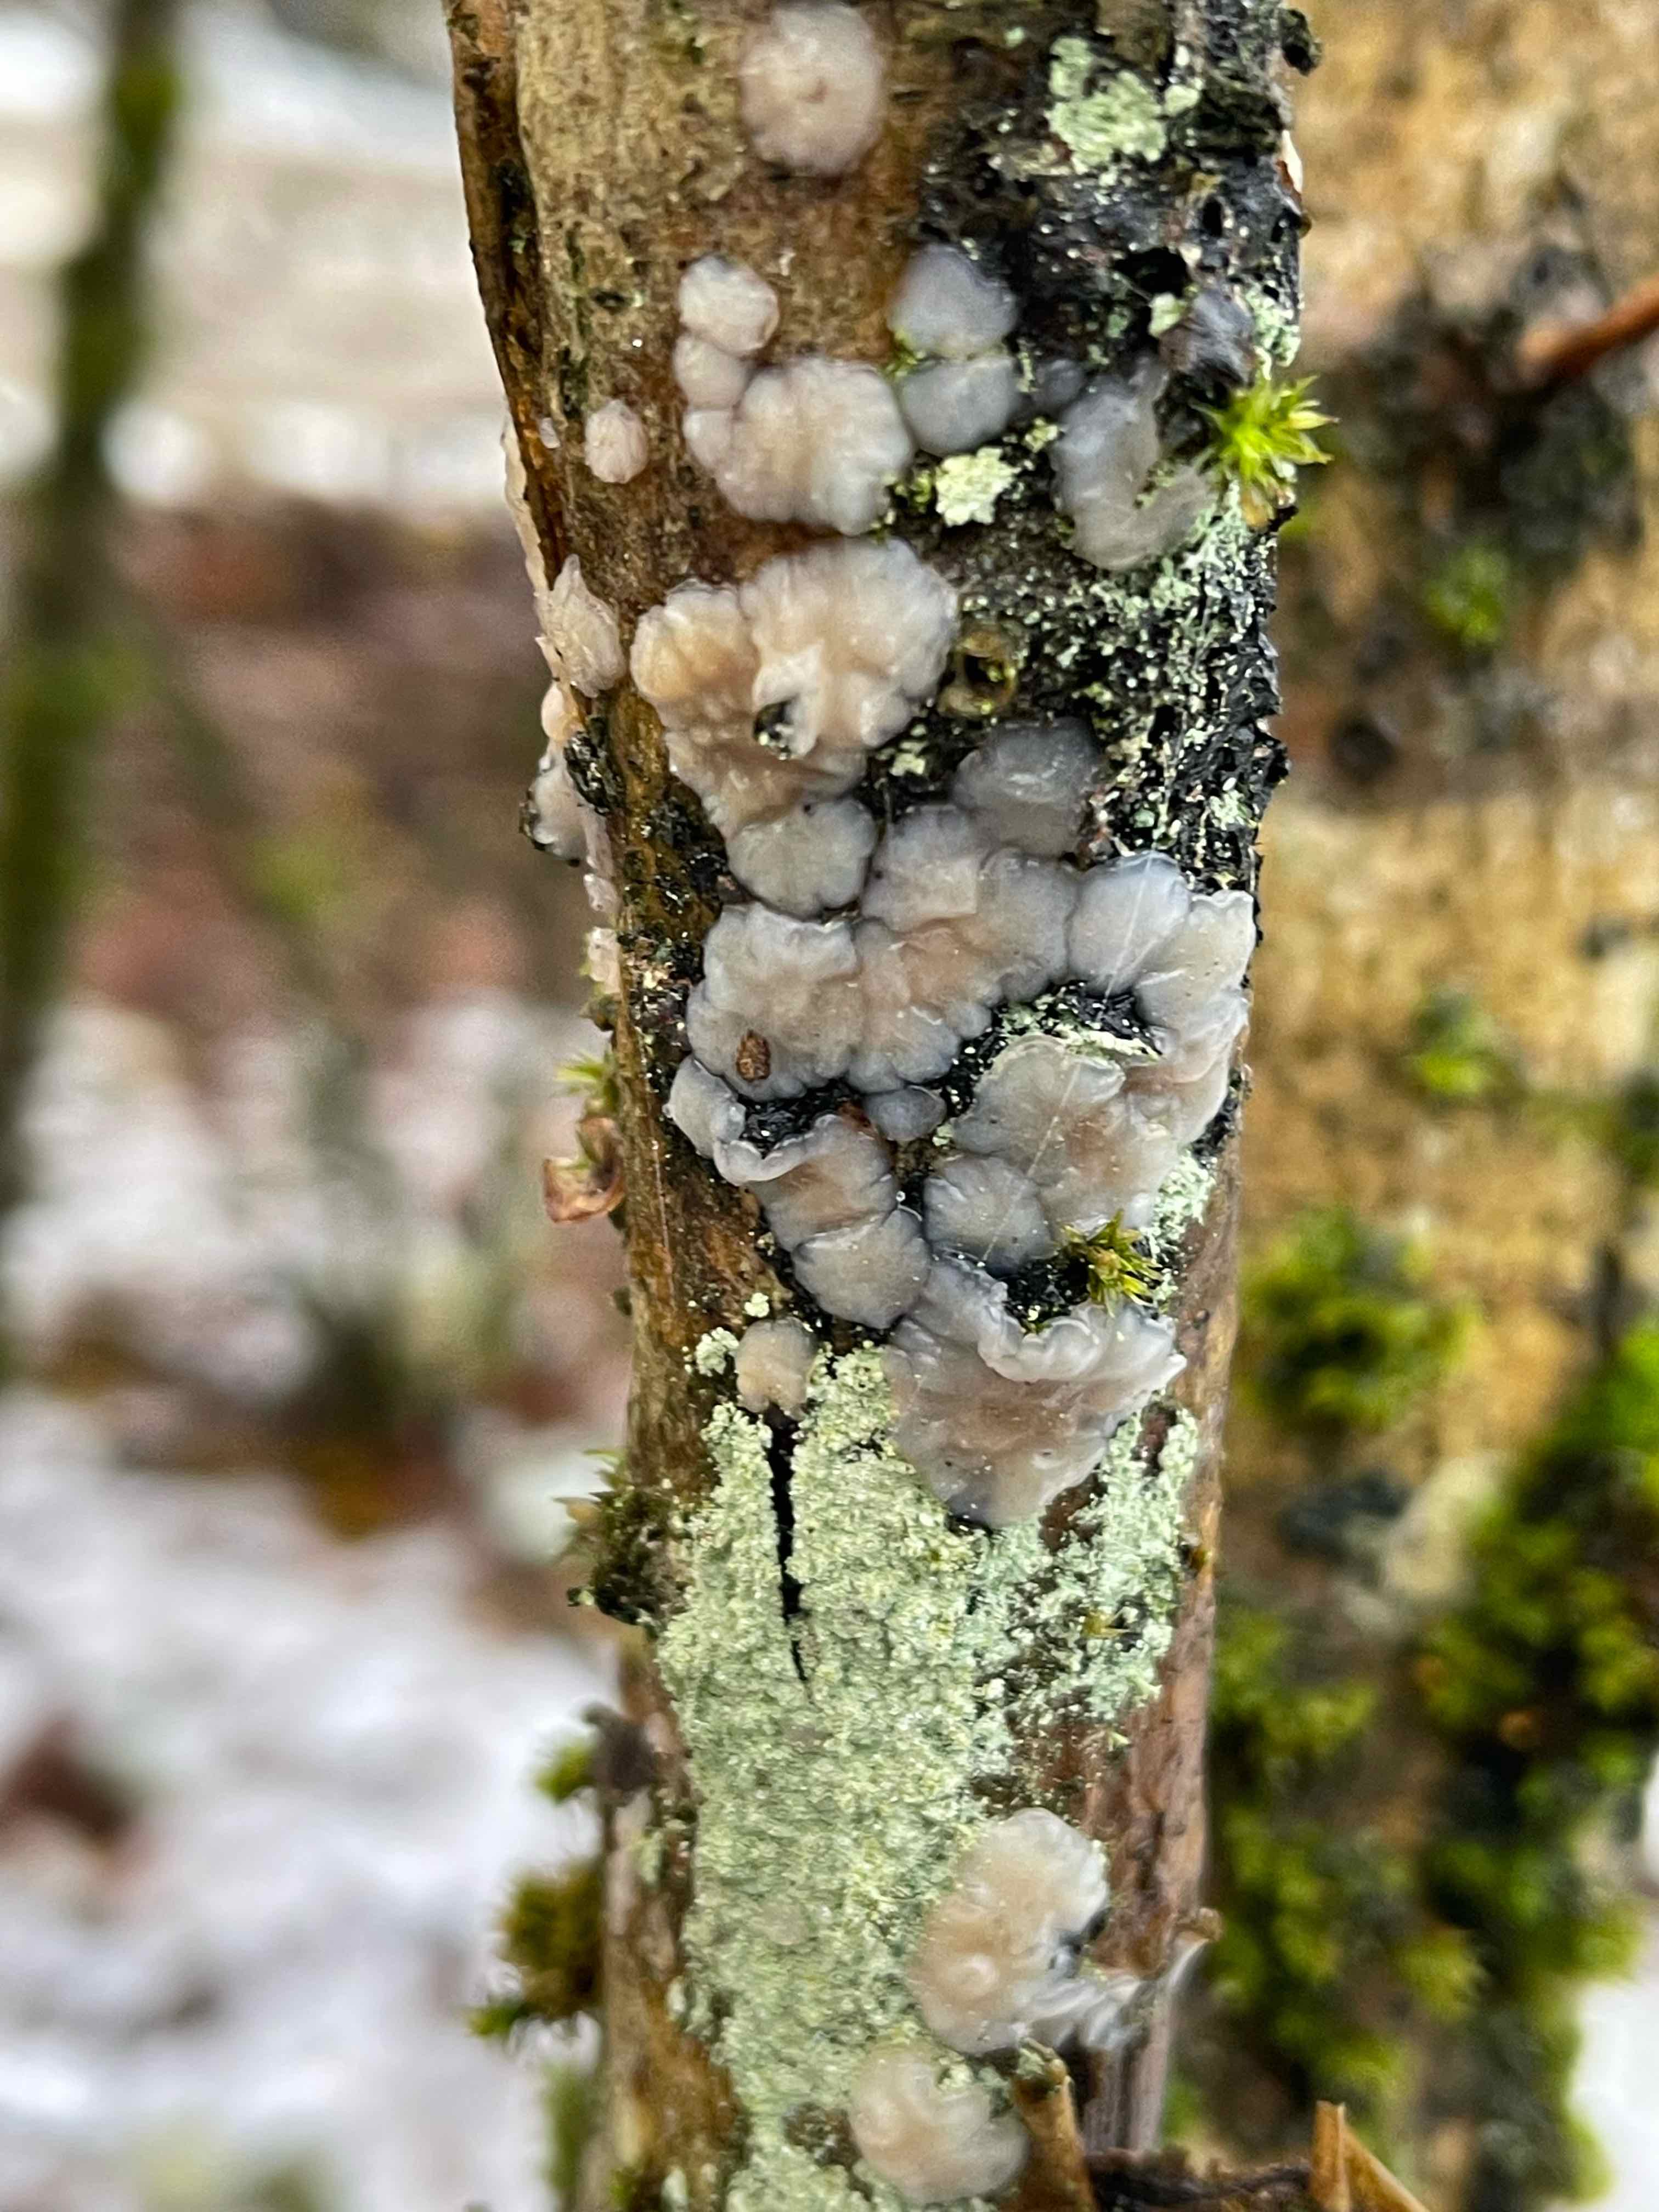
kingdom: Fungi
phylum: Basidiomycota
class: Agaricomycetes
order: Auriculariales
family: Auriculariaceae
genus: Exidia
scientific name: Exidia thuretiana
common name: hvidlig bævretop
